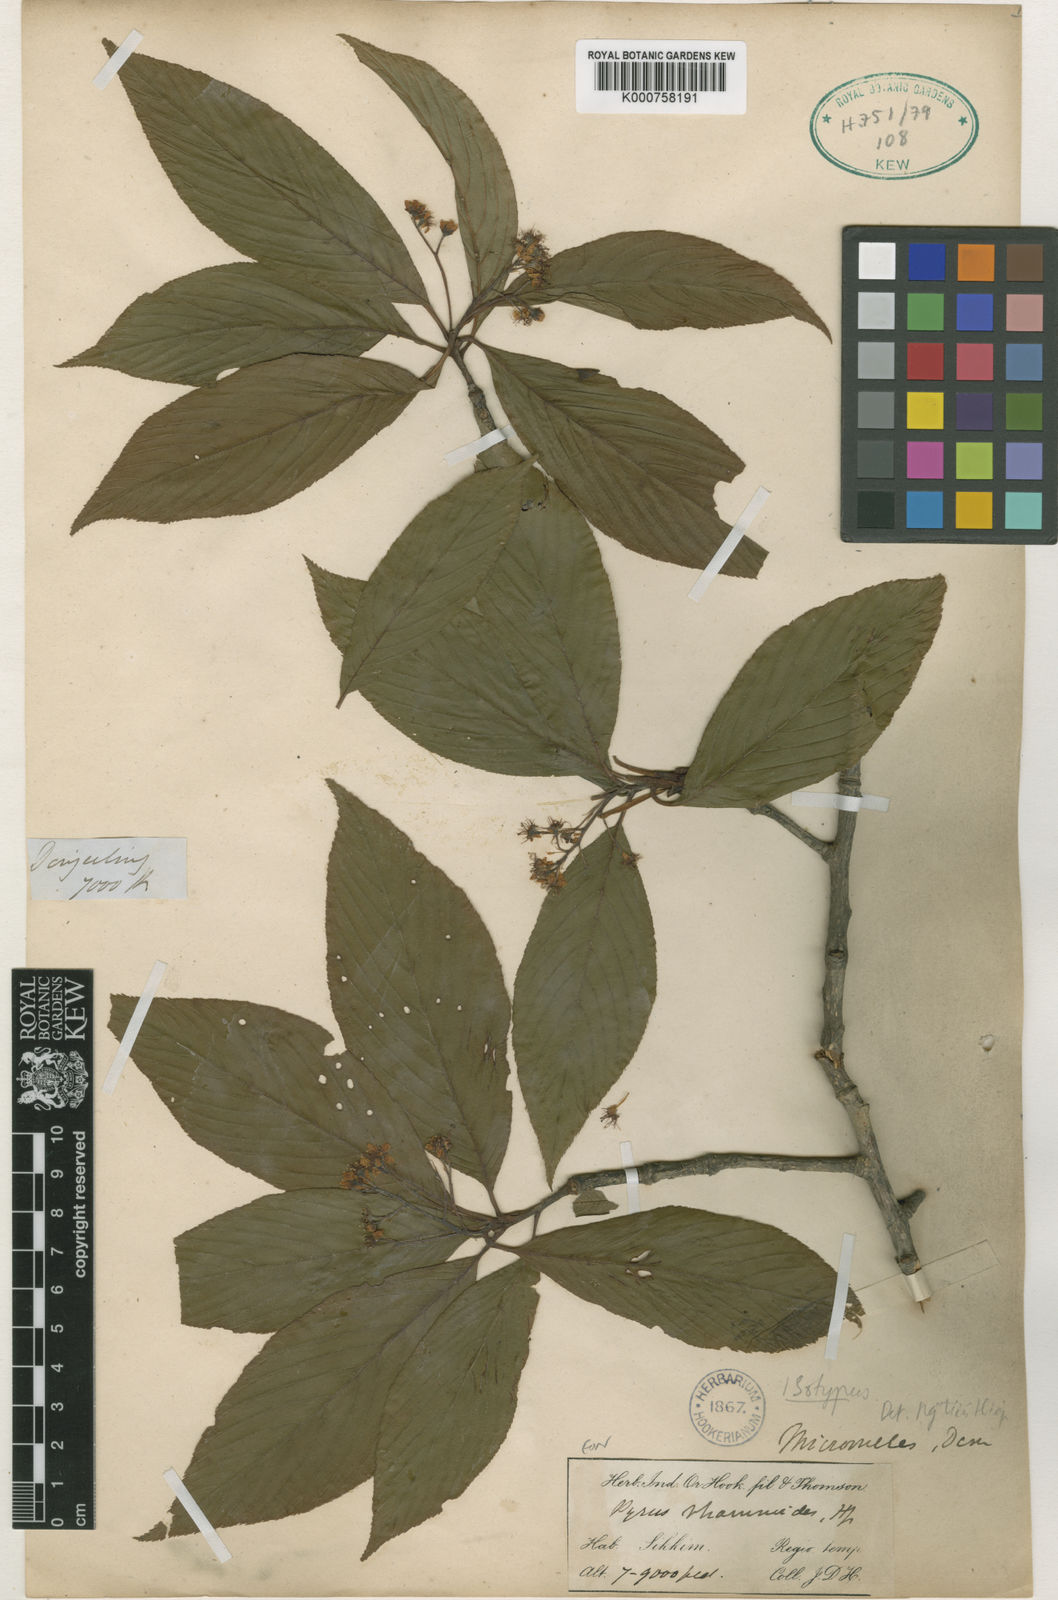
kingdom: Plantae
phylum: Tracheophyta
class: Magnoliopsida
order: Rosales
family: Rosaceae
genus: Micromeles
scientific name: Micromeles rhamnoides
